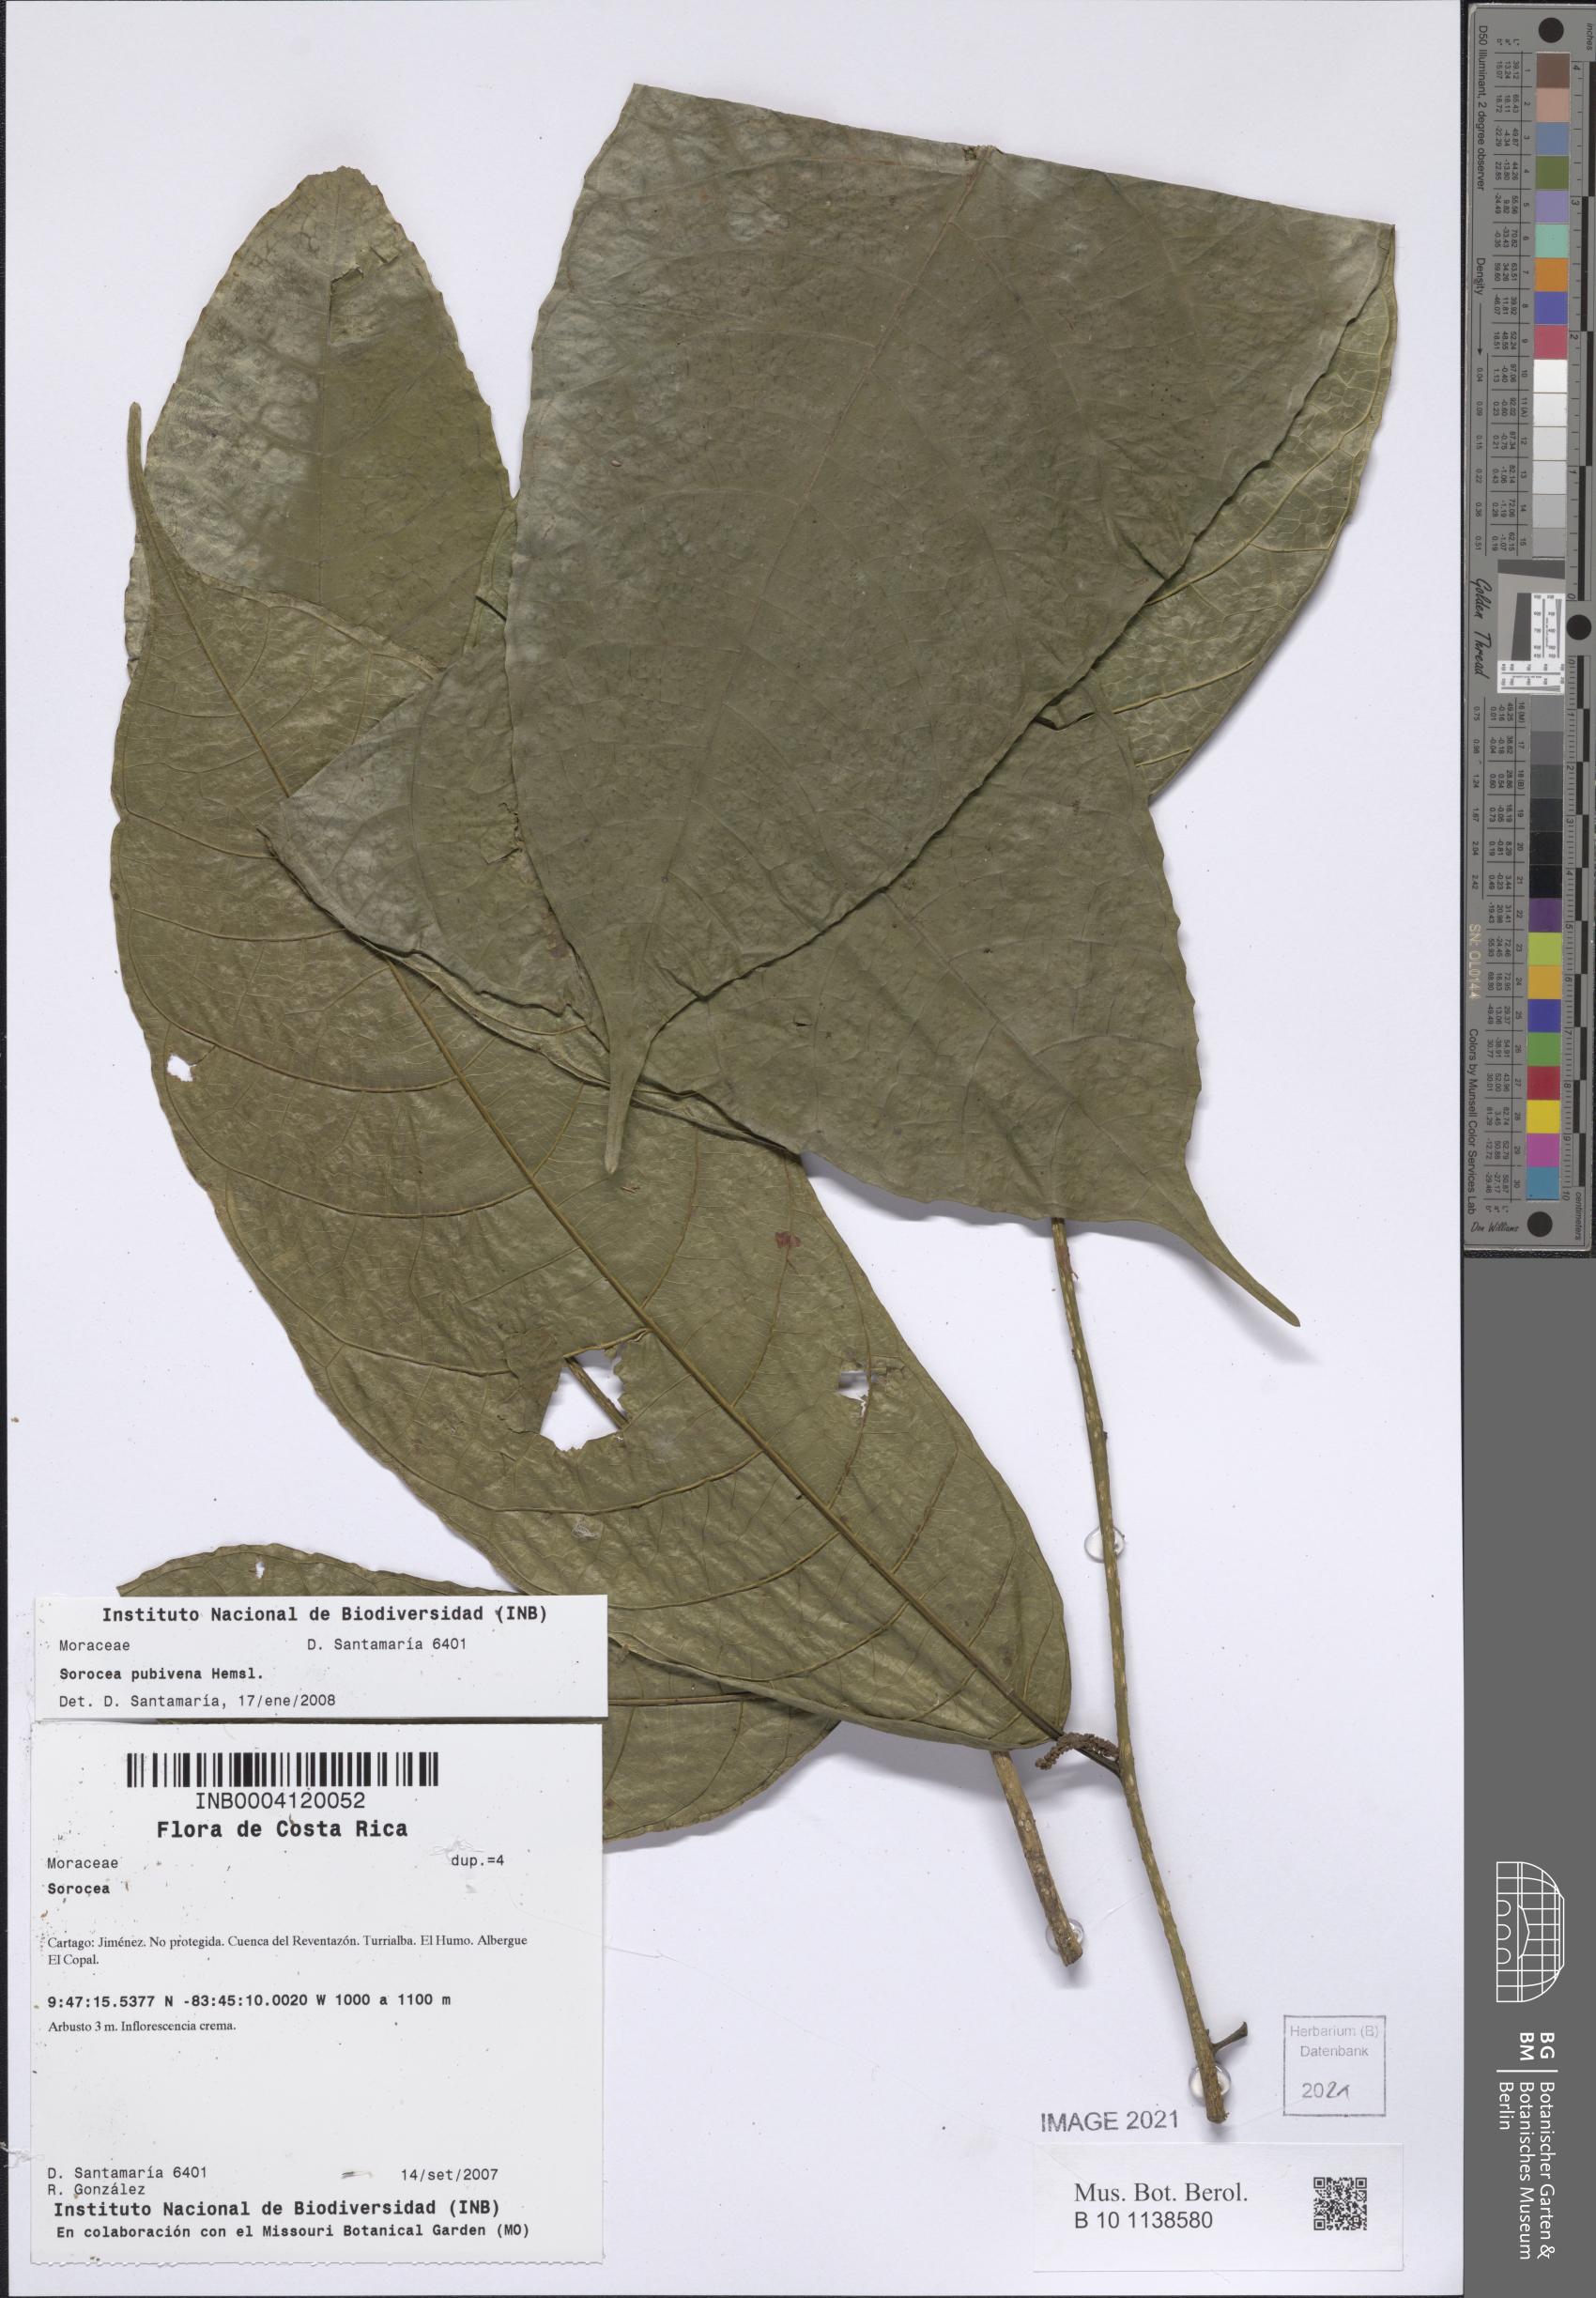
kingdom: Plantae
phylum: Tracheophyta
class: Magnoliopsida
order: Rosales
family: Moraceae
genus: Sorocea
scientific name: Sorocea pubivena
